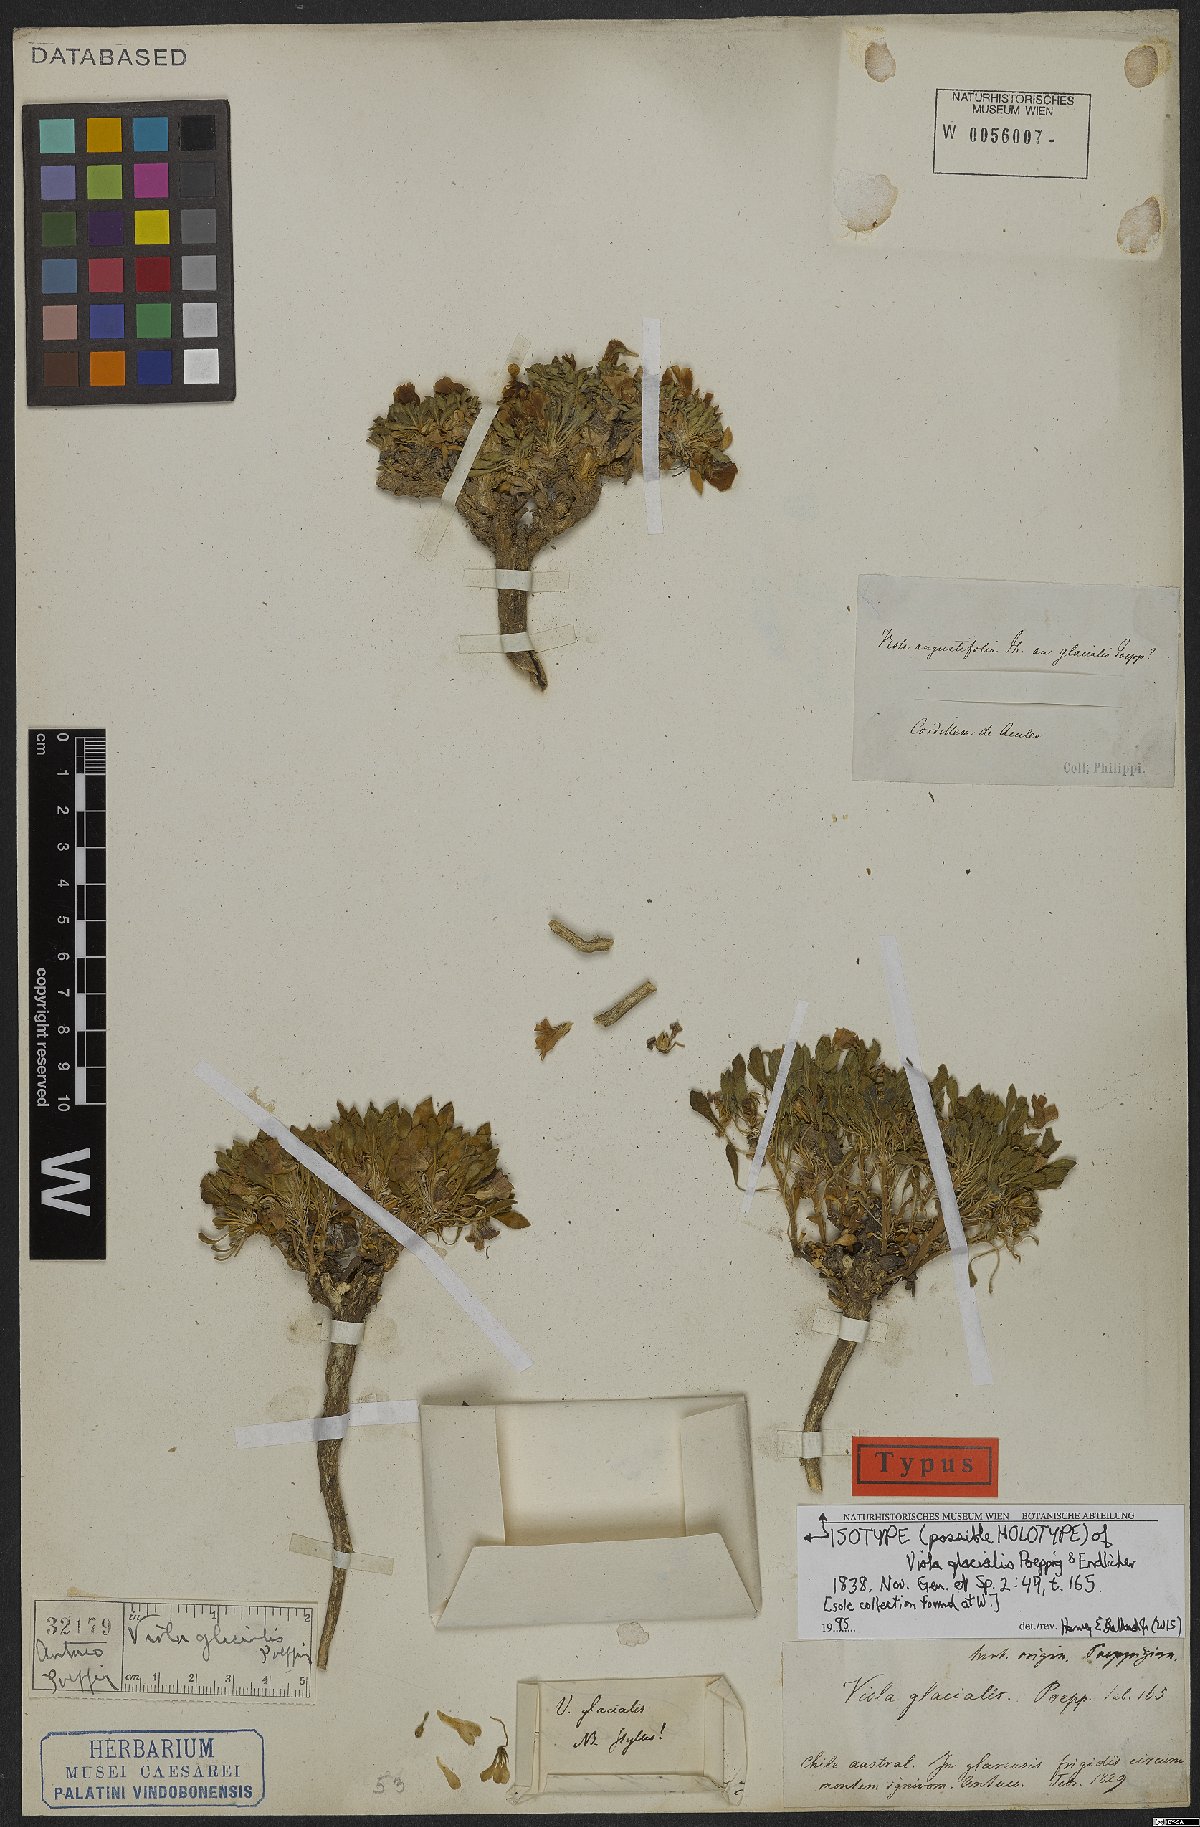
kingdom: Plantae
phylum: Tracheophyta
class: Magnoliopsida
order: Malpighiales
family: Violaceae
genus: Viola
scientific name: Viola truncata
